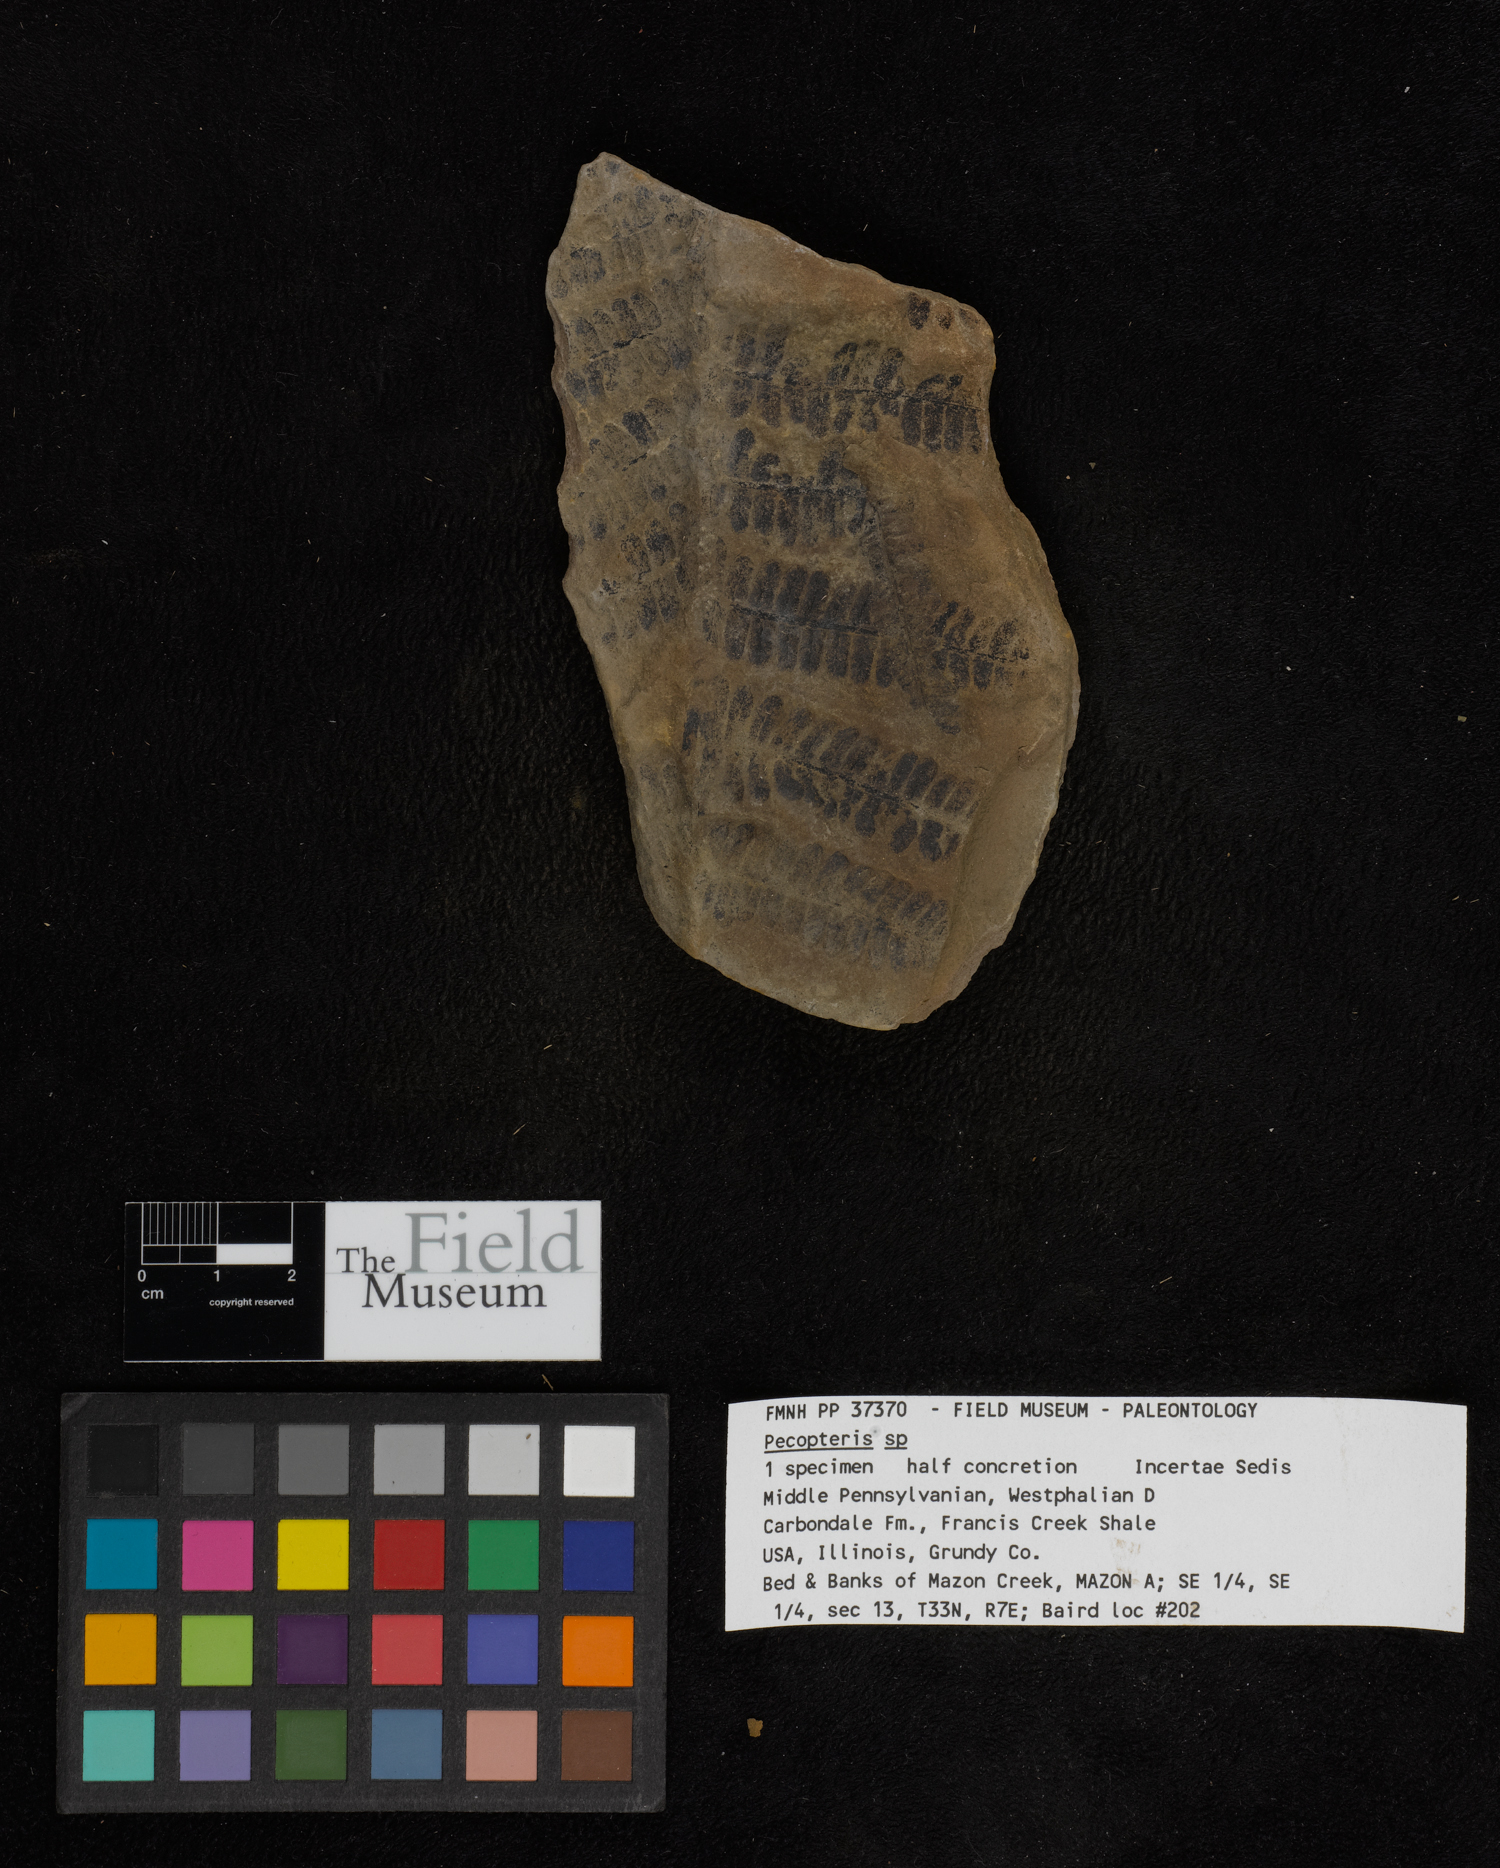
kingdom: Plantae
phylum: Tracheophyta
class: Polypodiopsida
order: Marattiales
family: Asterothecaceae
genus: Pecopteris
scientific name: Pecopteris
